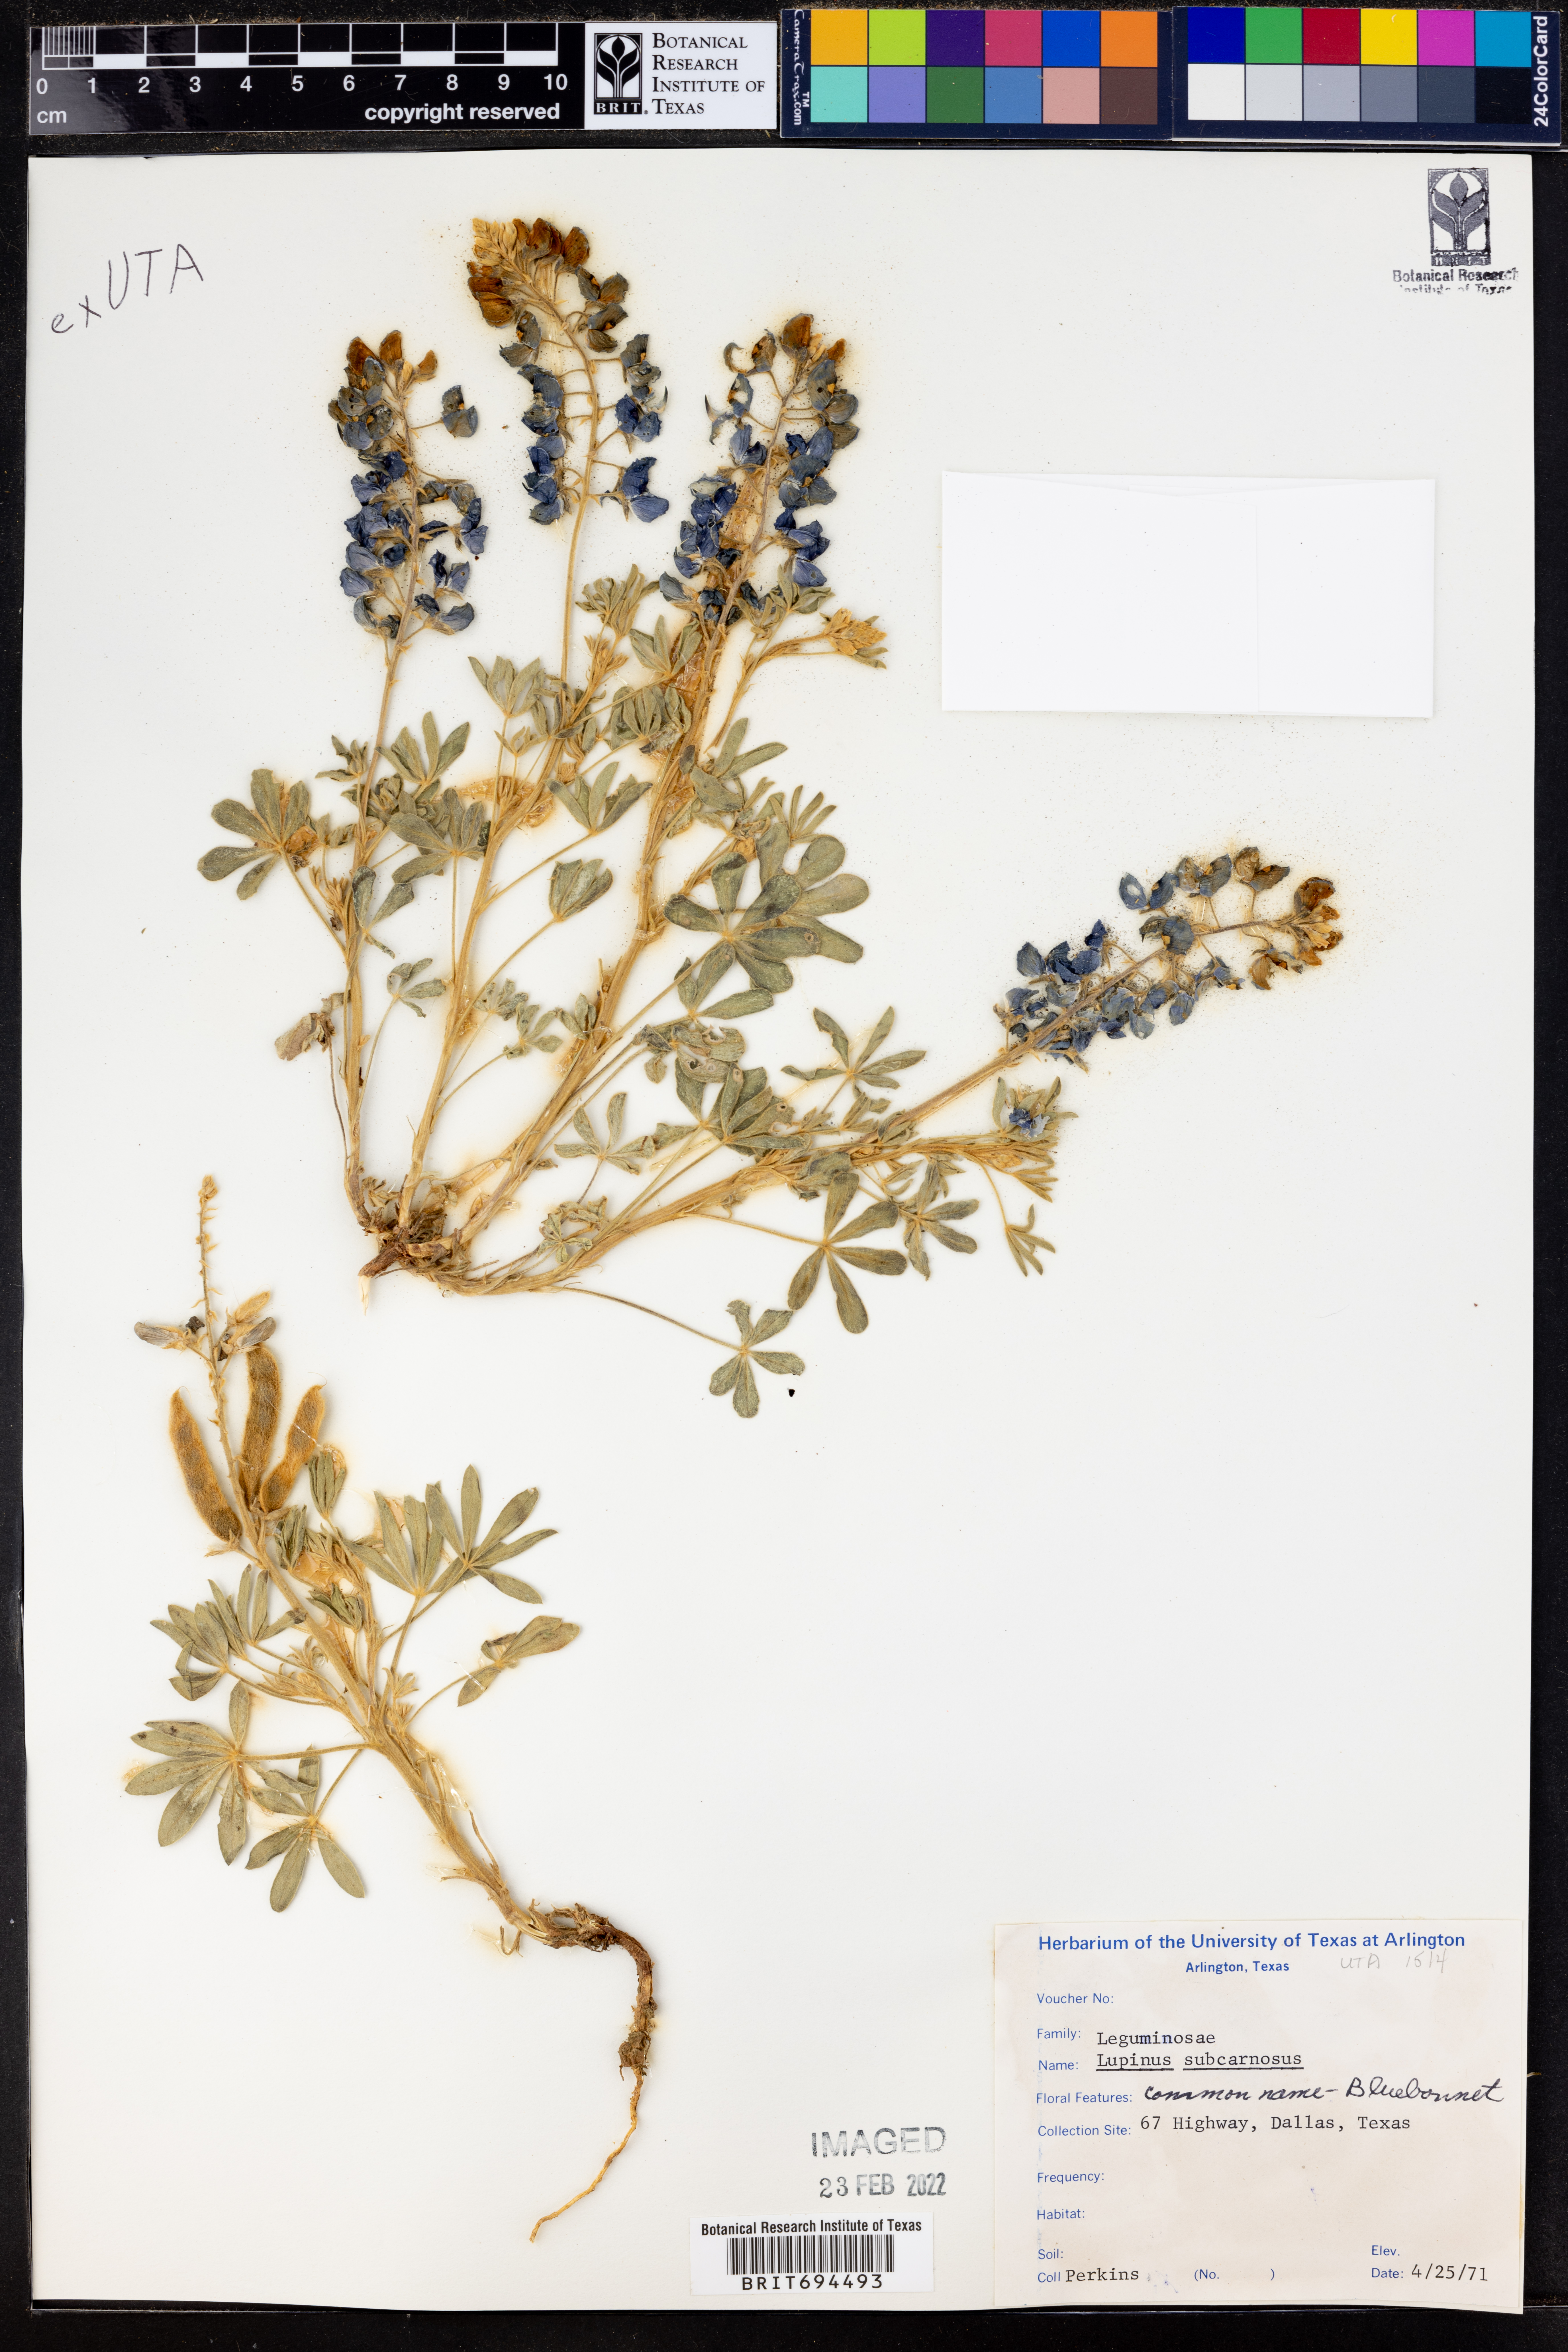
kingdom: Plantae
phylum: Tracheophyta
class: Magnoliopsida
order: Fabales
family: Fabaceae
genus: Lupinus
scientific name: Lupinus subcarnosus
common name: Texas bluebonnet
